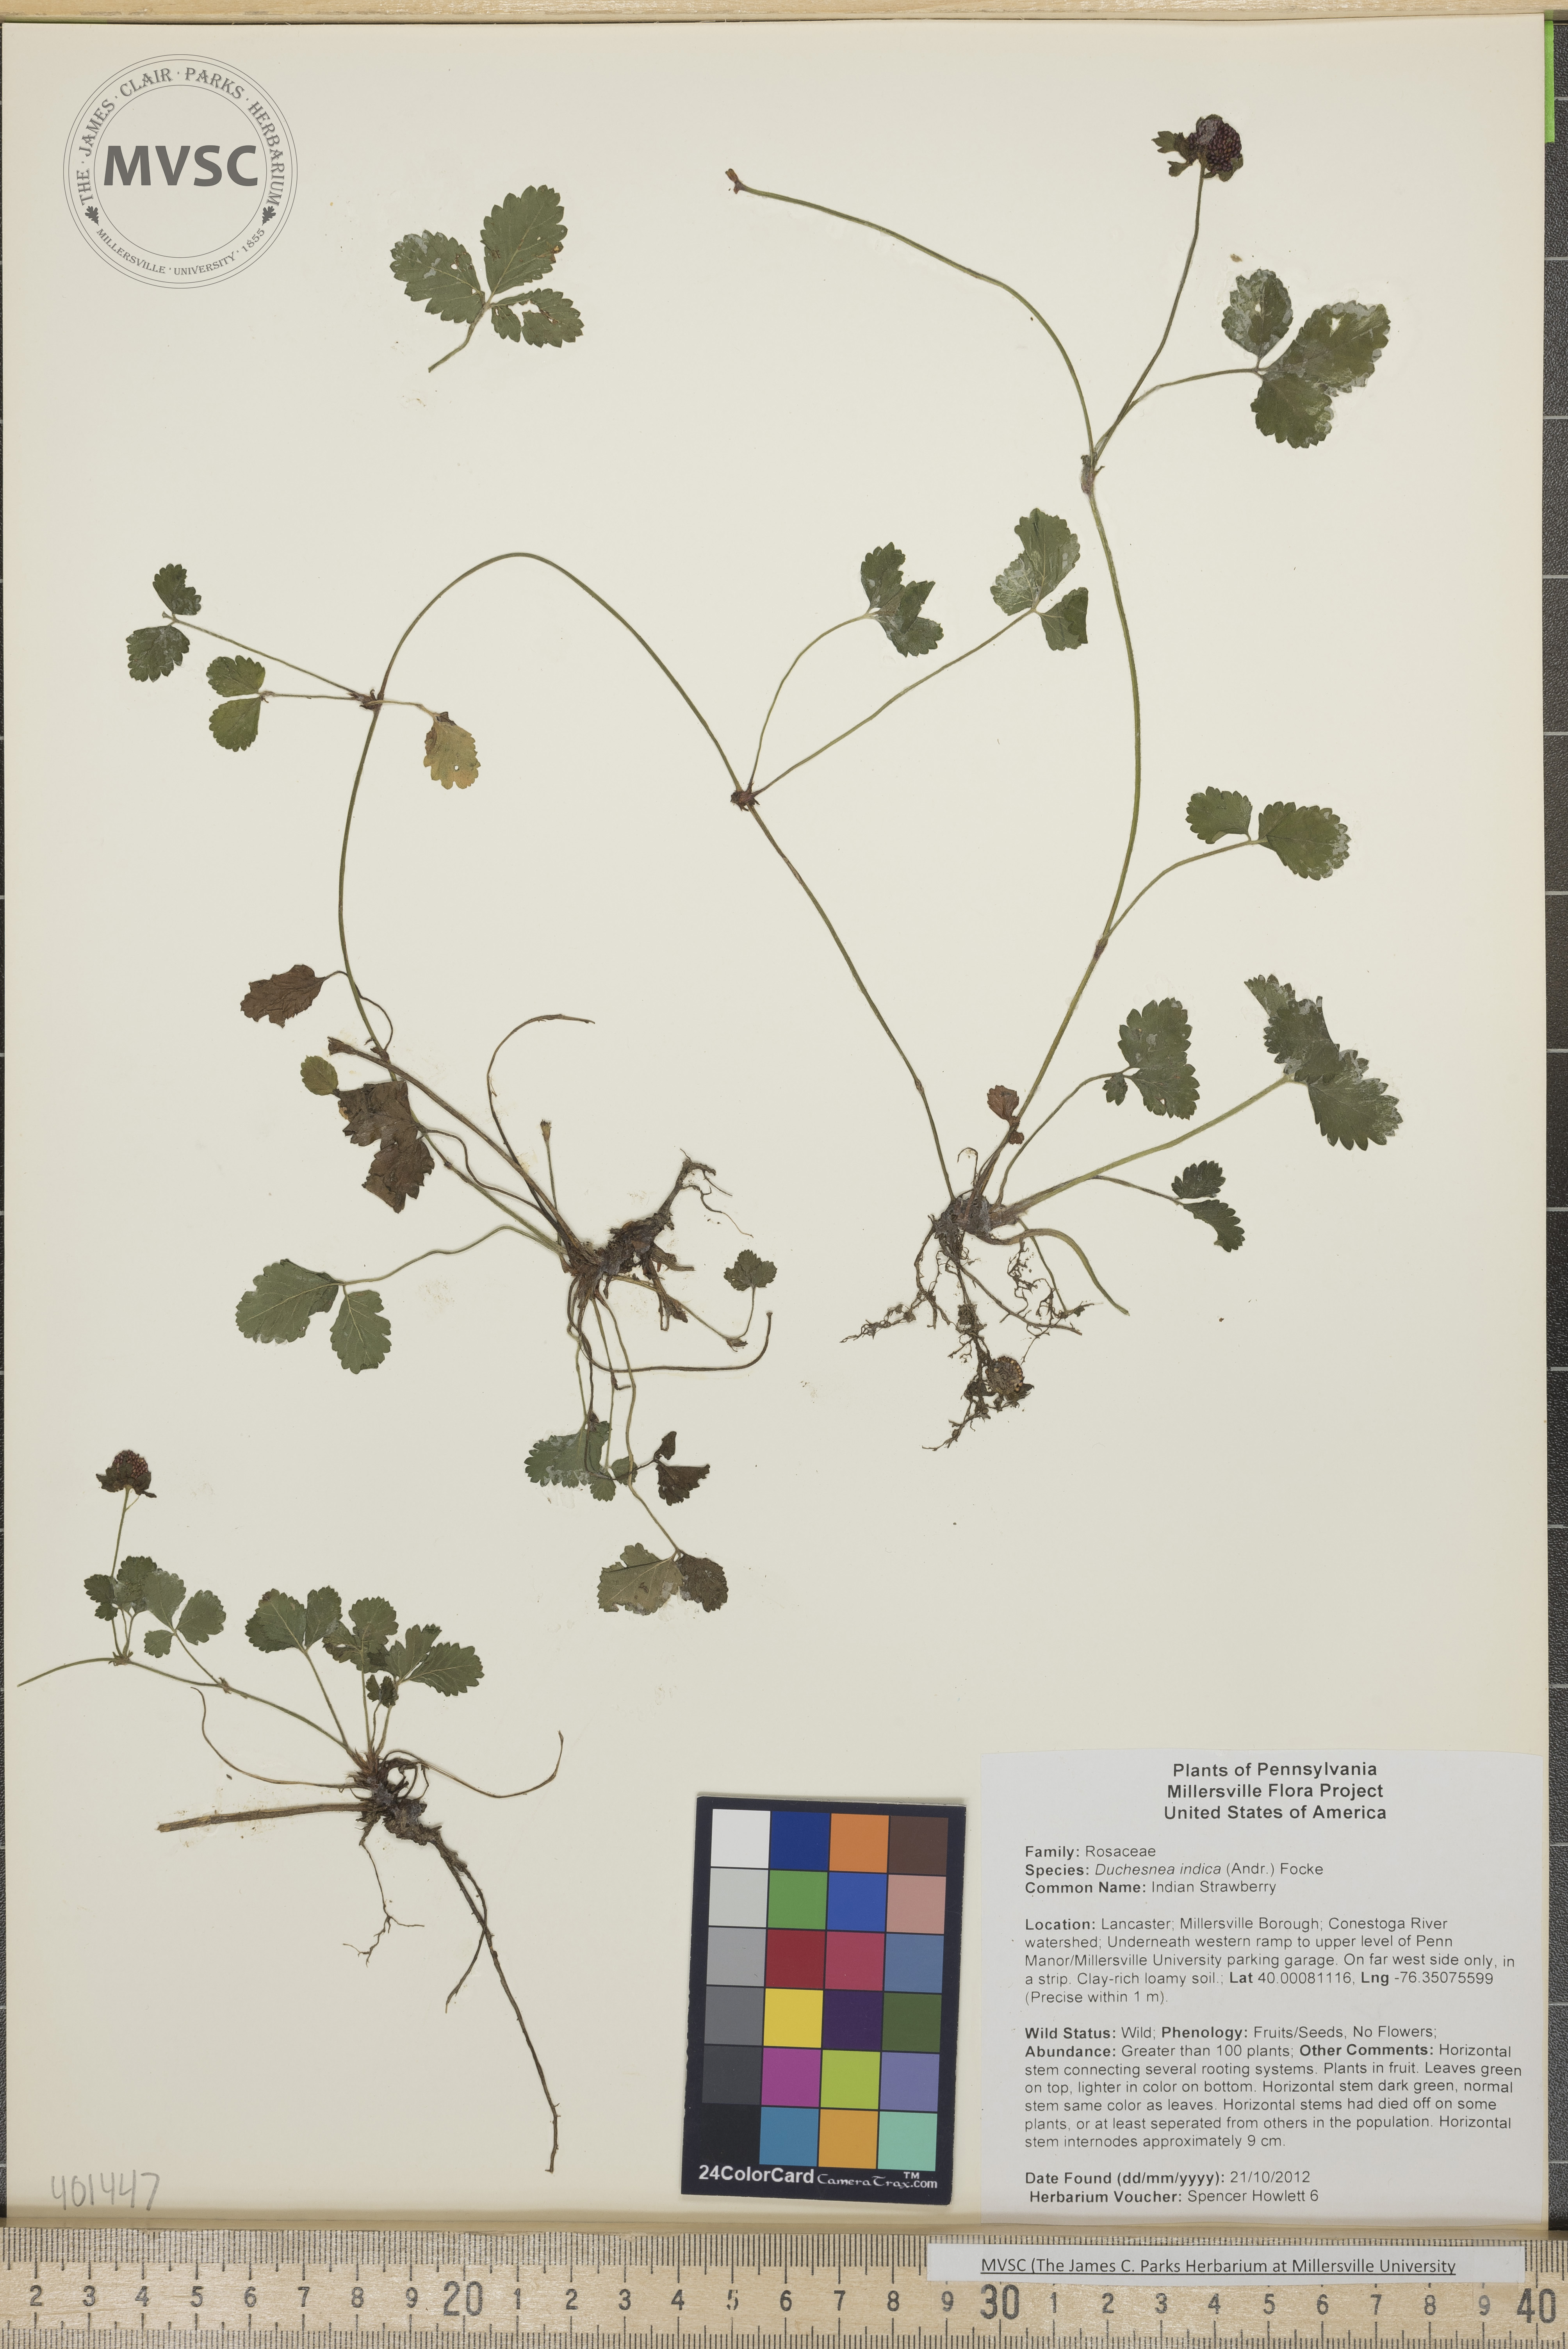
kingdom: Plantae
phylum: Tracheophyta
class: Magnoliopsida
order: Rosales
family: Rosaceae
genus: Potentilla
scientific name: Potentilla indica
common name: Indian Strawberry
